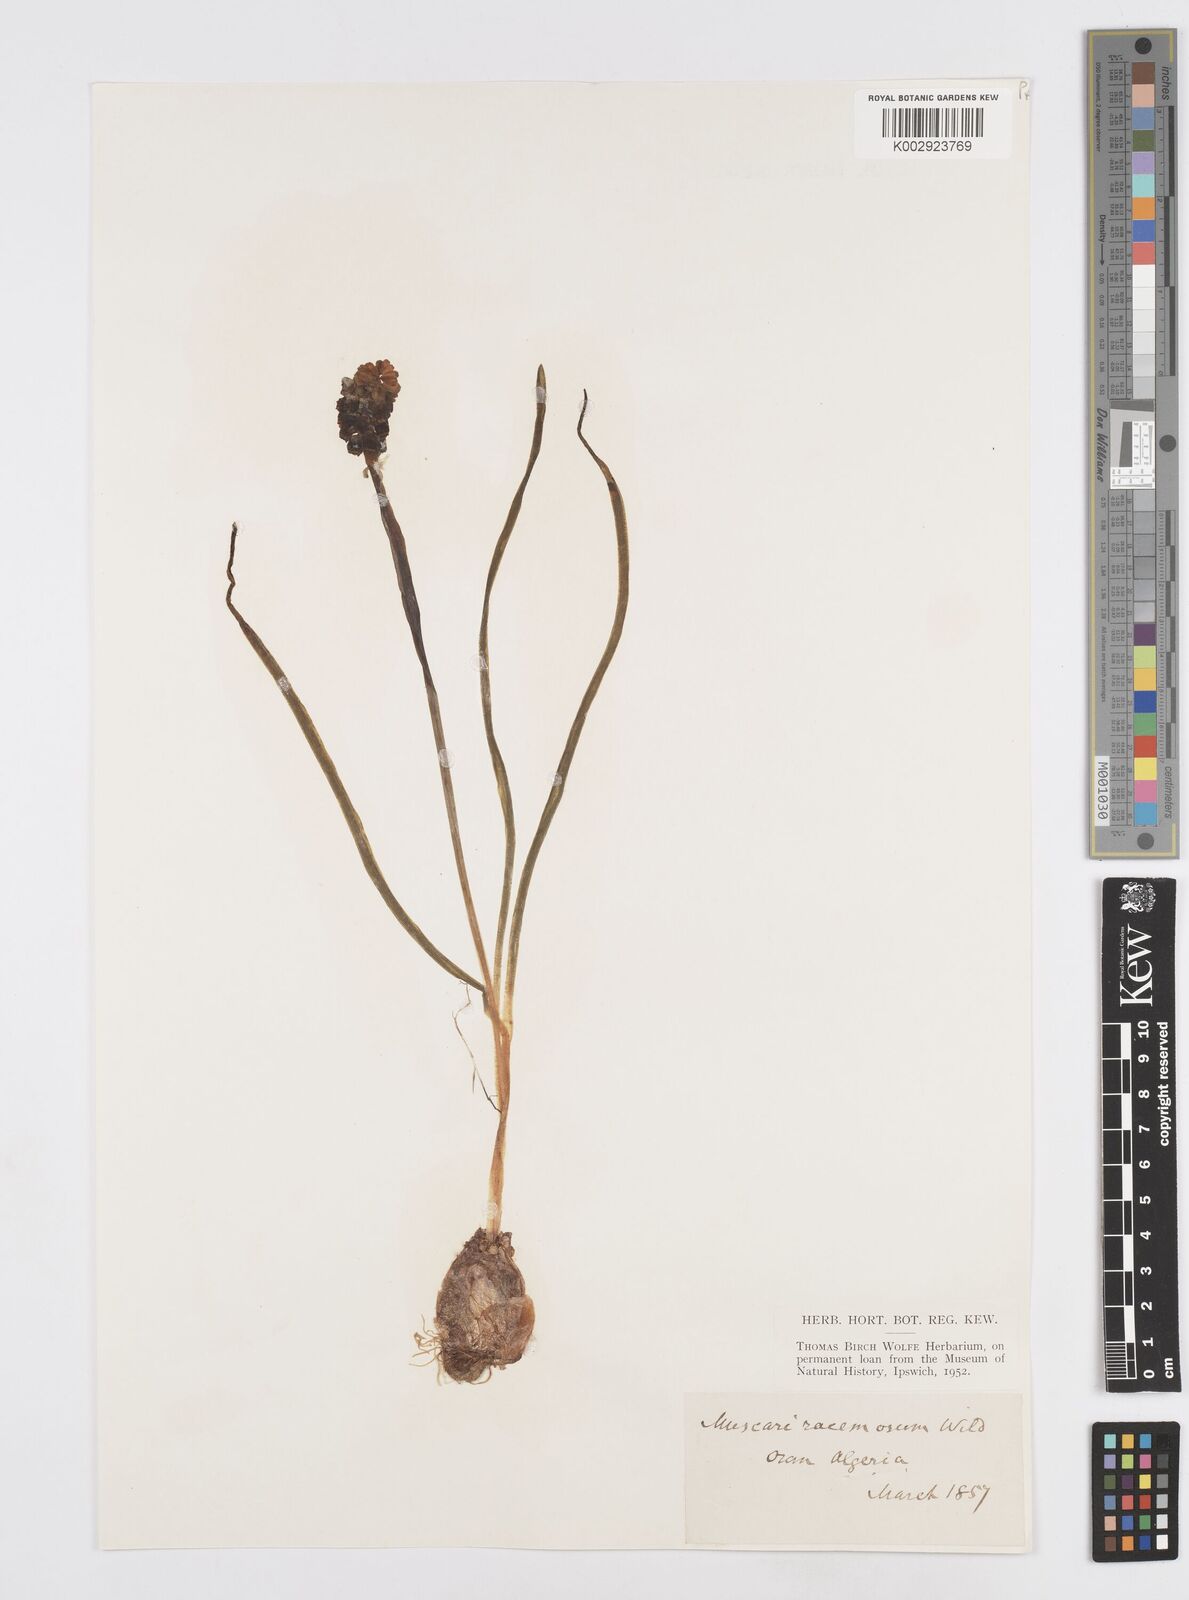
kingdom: Plantae
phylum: Tracheophyta
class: Liliopsida
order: Asparagales
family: Asparagaceae
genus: Muscarimia
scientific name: Muscarimia muscari
